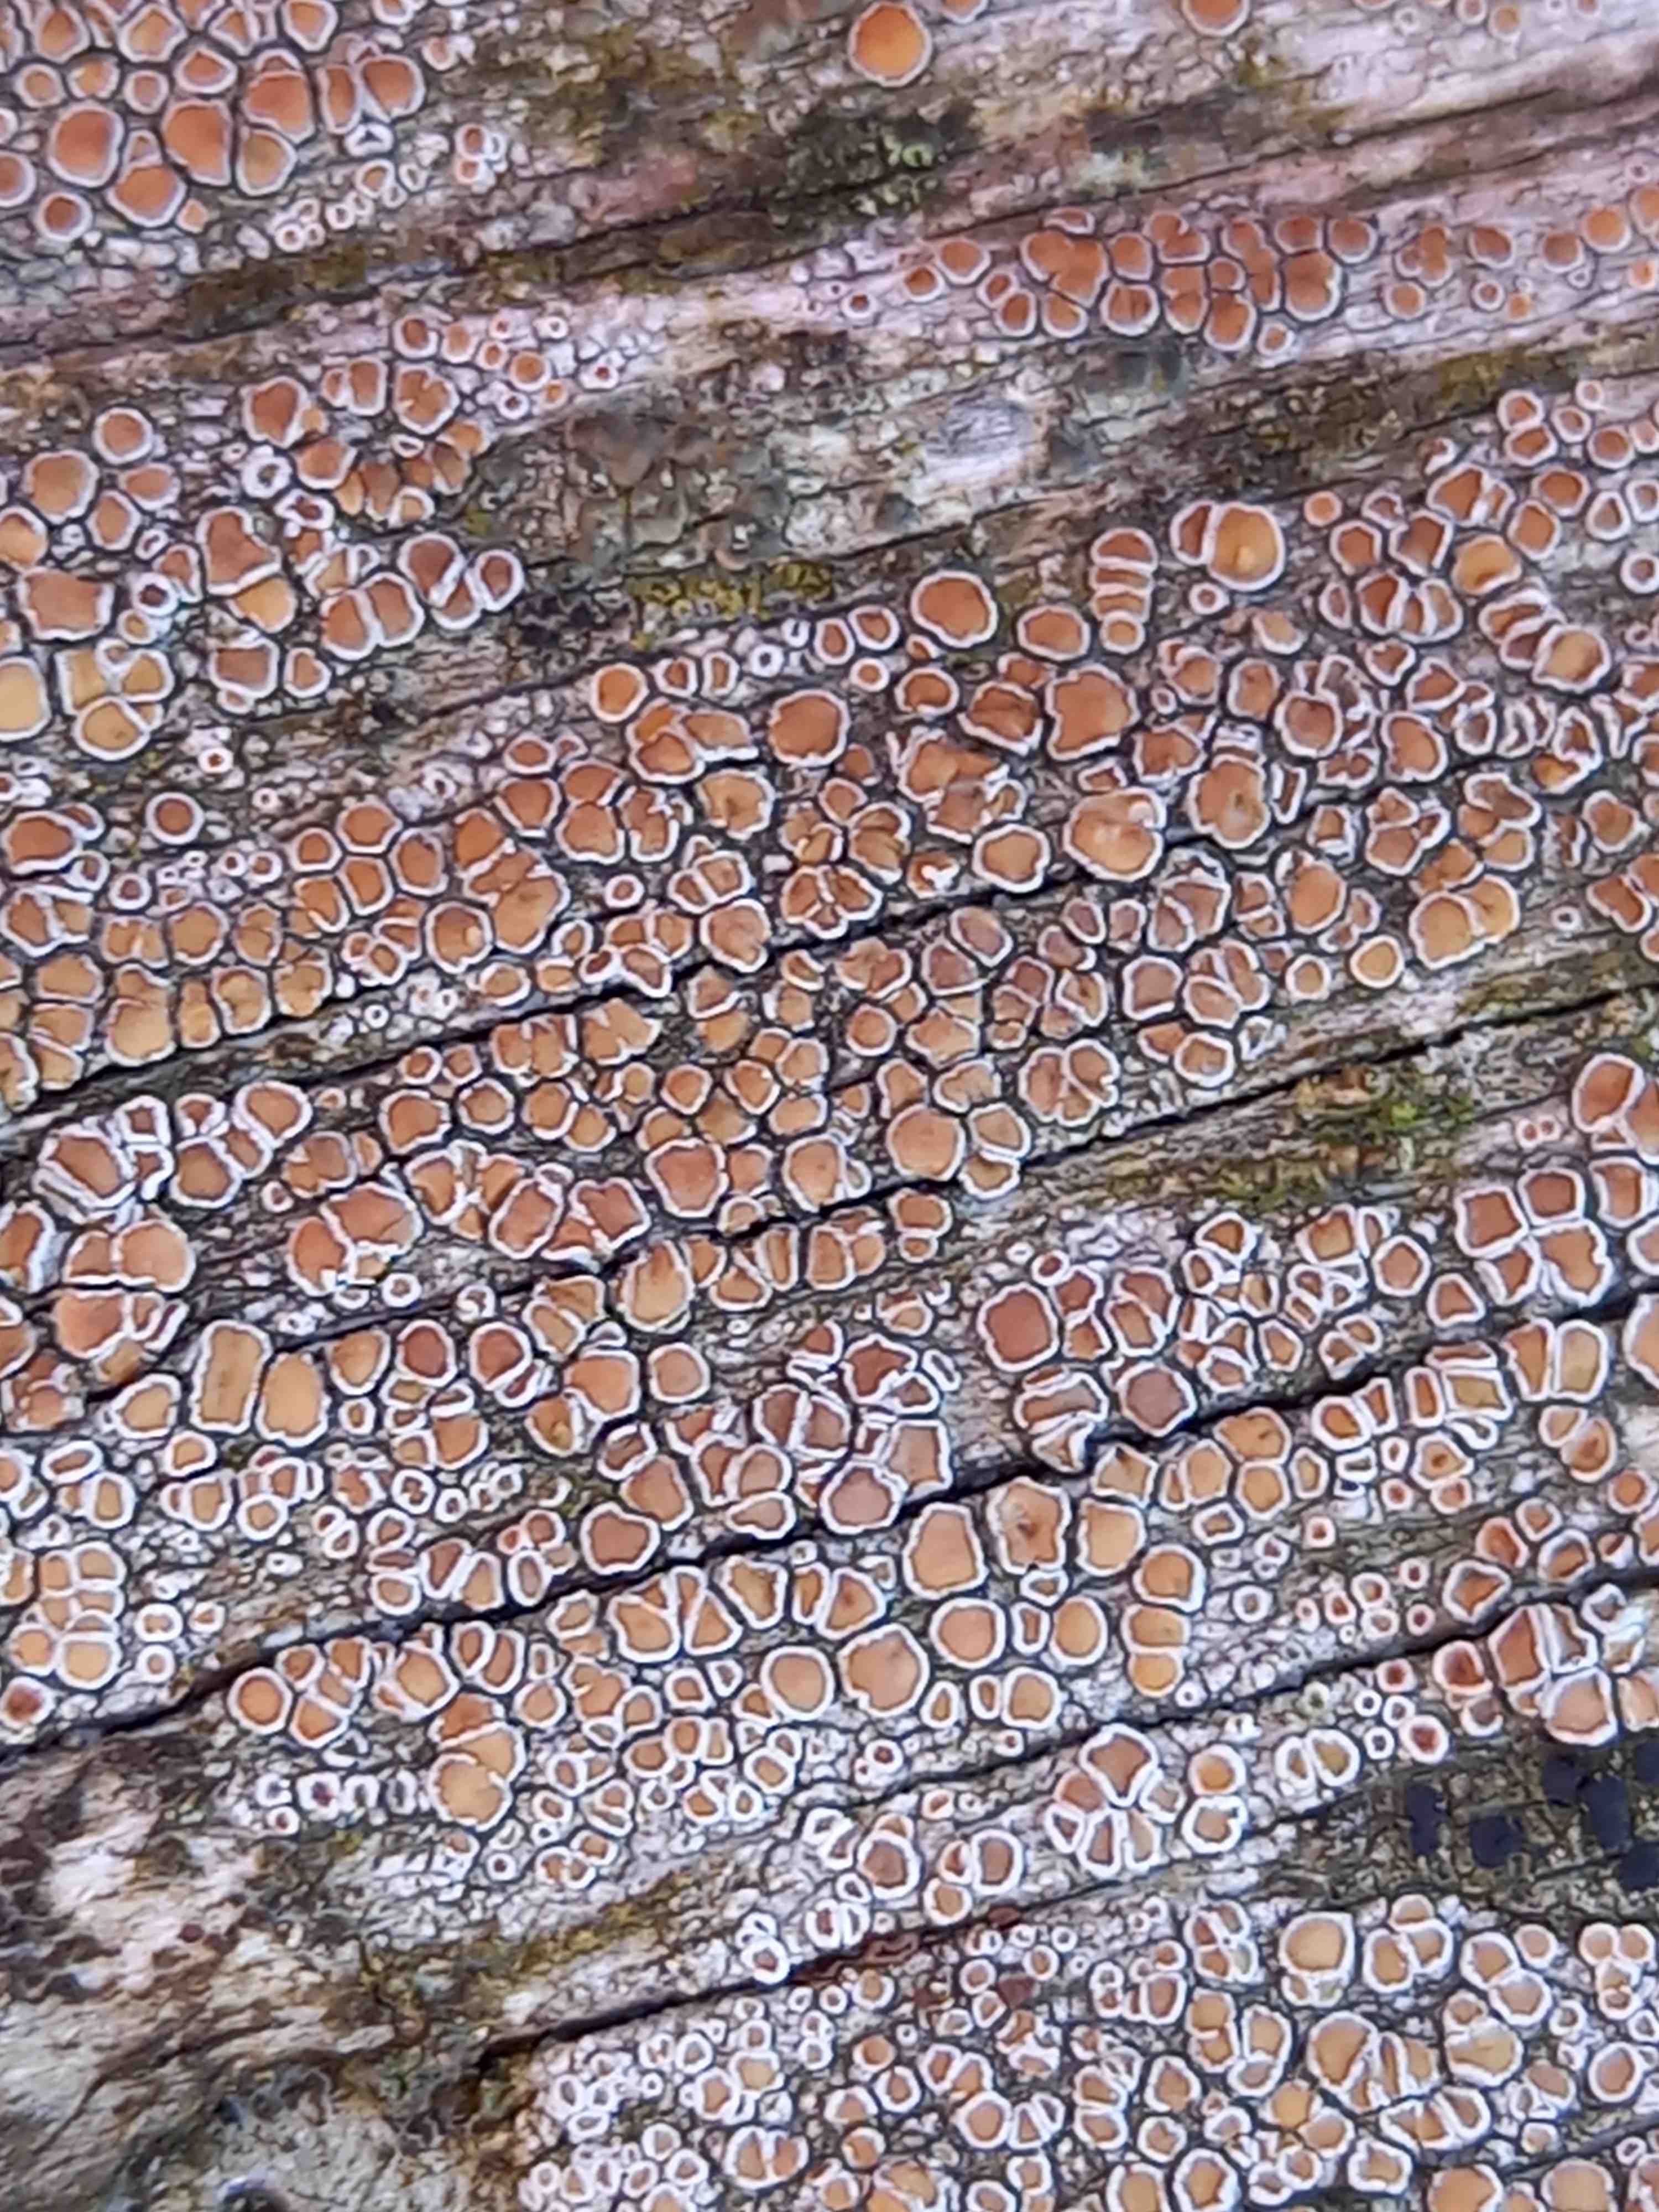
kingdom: Fungi
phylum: Ascomycota
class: Lecanoromycetes
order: Lecanorales
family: Lecanoraceae
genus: Lecanora
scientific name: Lecanora chlarotera
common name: brun kantskivelav
